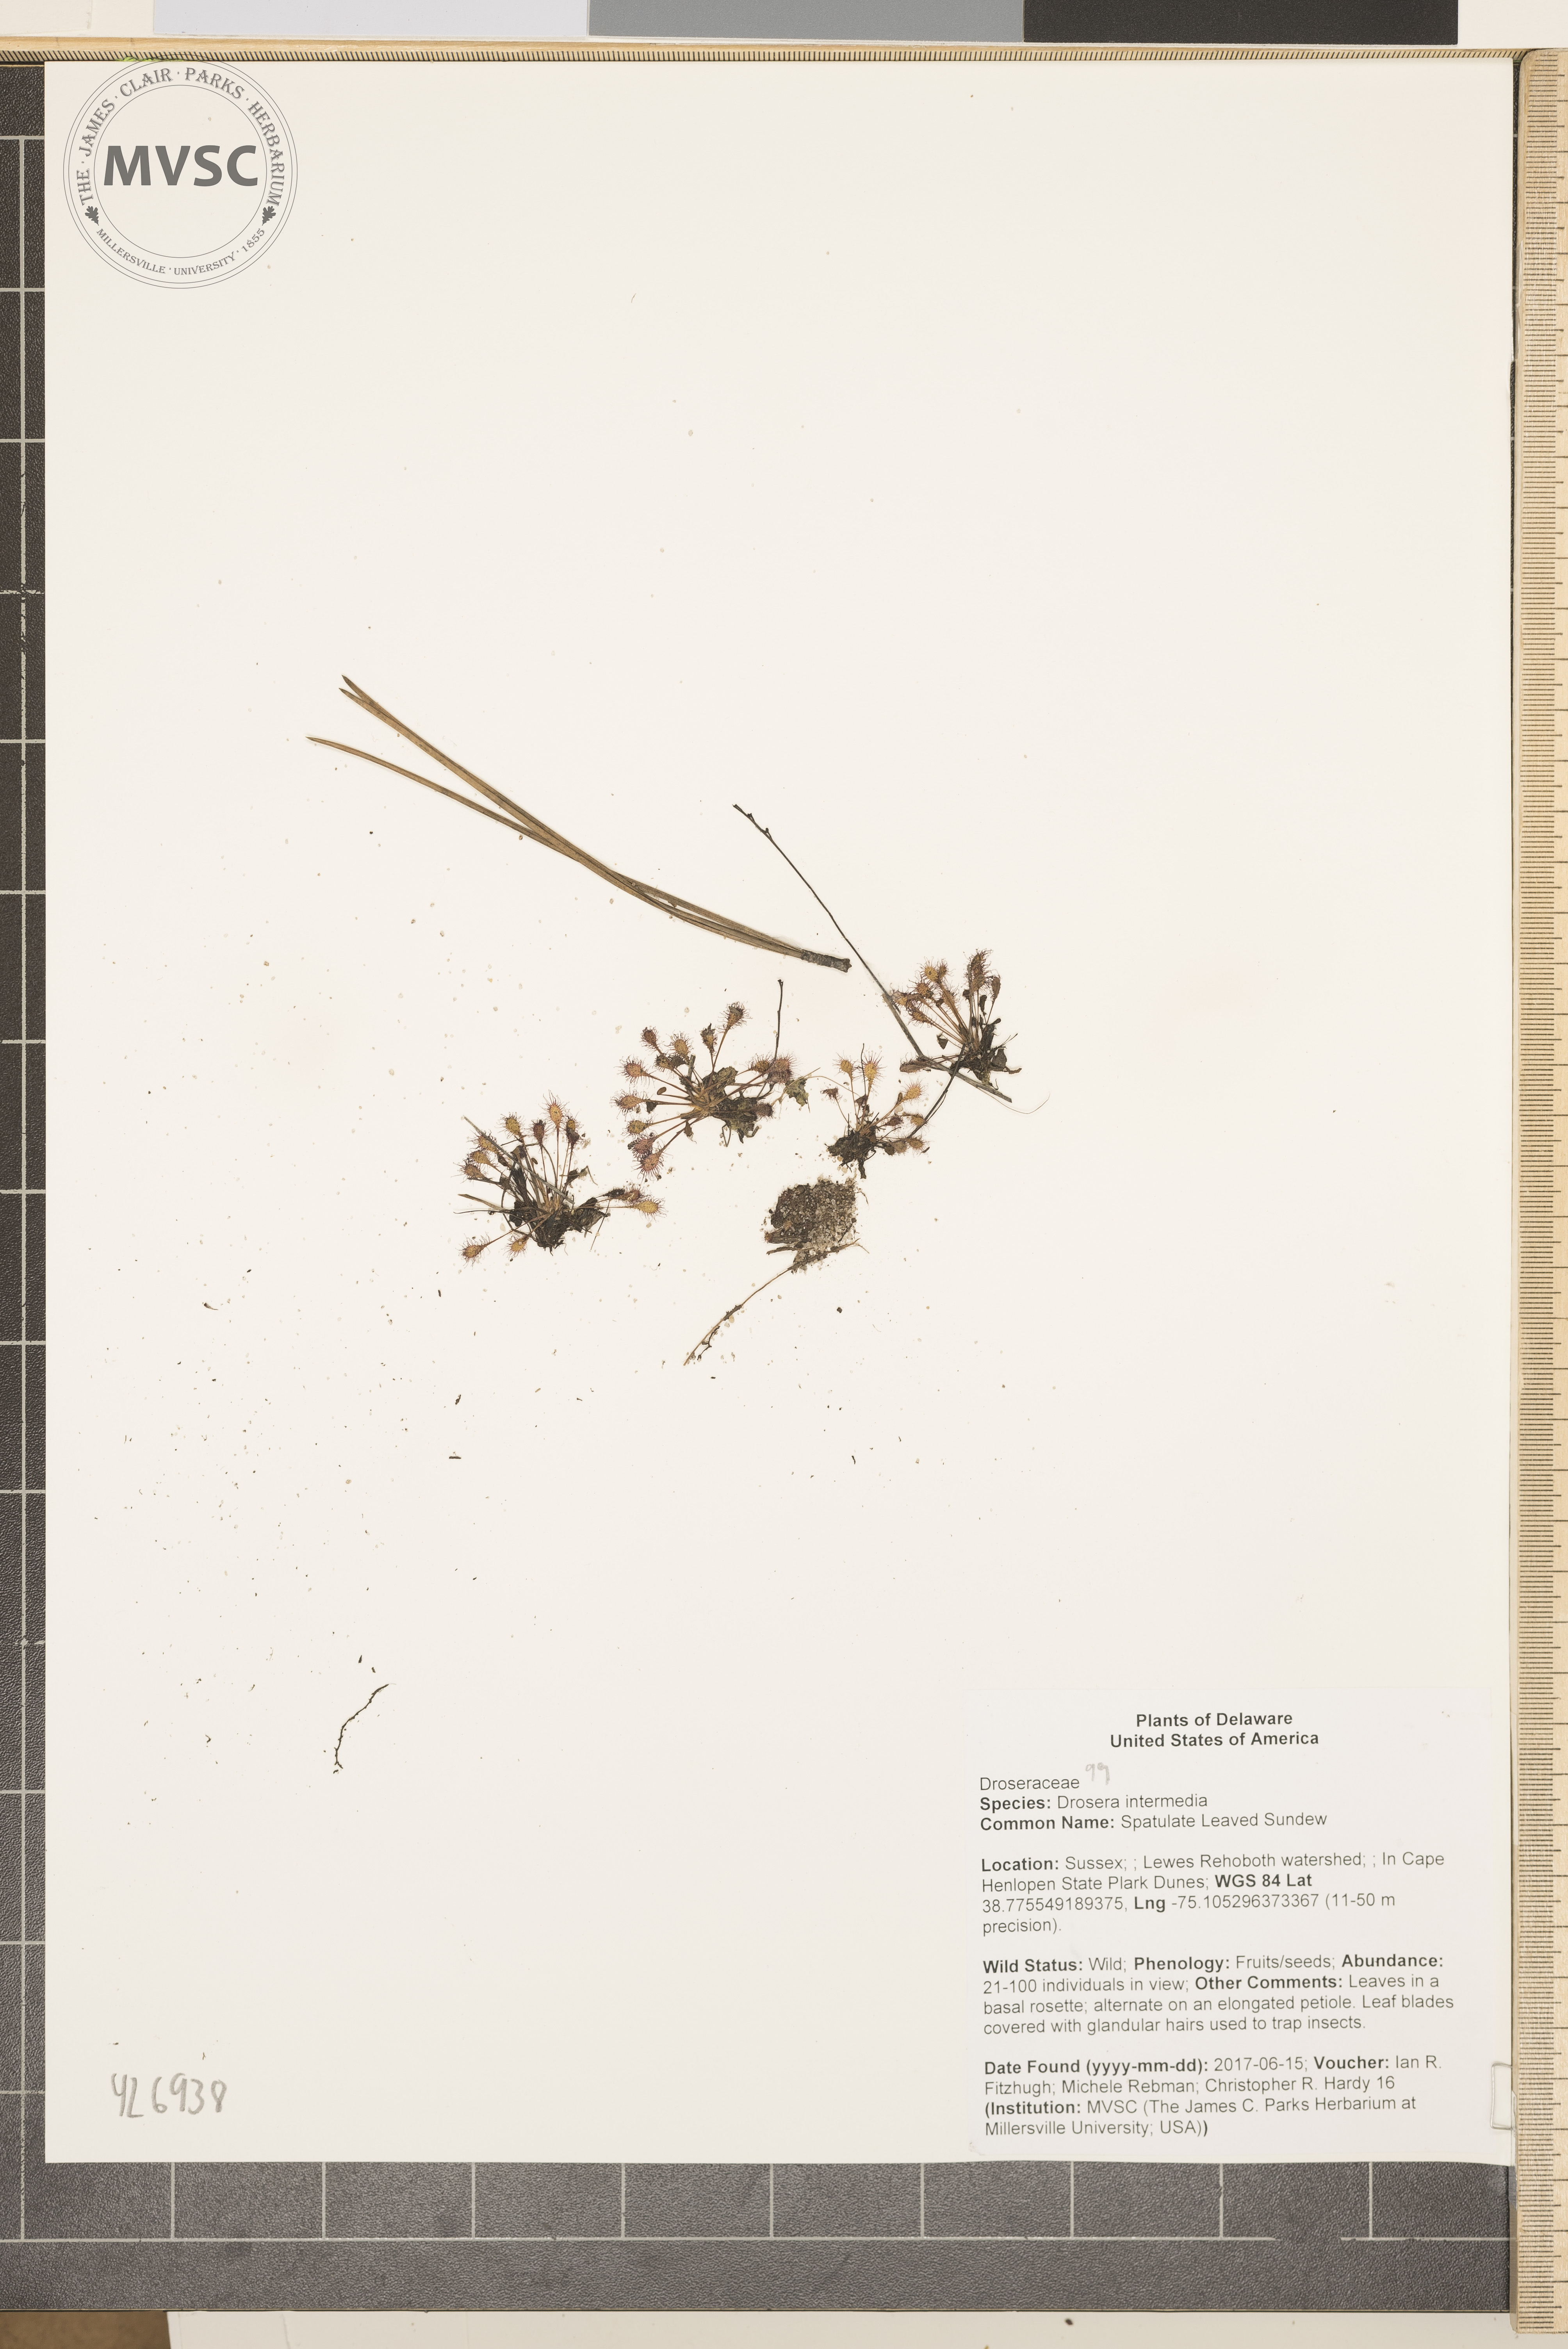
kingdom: Plantae
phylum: Tracheophyta
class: Magnoliopsida
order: Caryophyllales
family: Droseraceae
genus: Drosera
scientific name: Drosera intermedia
